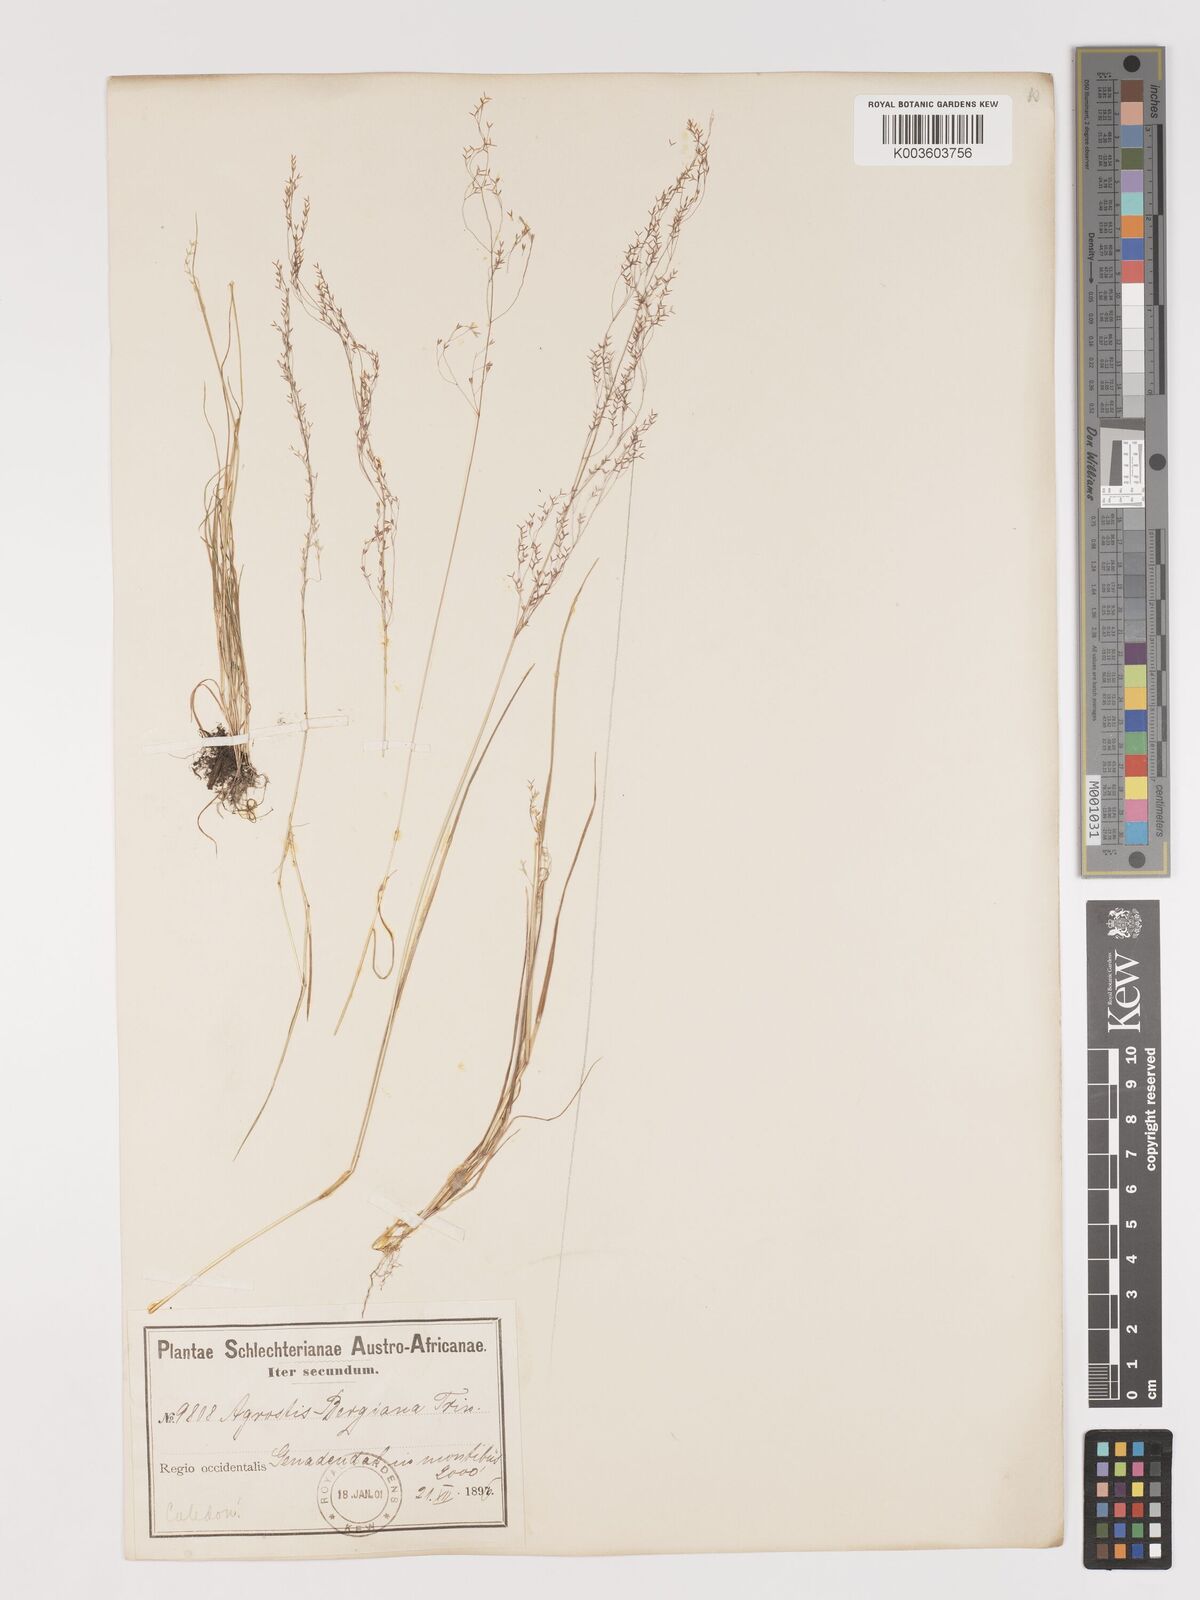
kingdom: Plantae
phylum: Tracheophyta
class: Liliopsida
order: Poales
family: Poaceae
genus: Agrostis
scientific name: Agrostis bergiana
